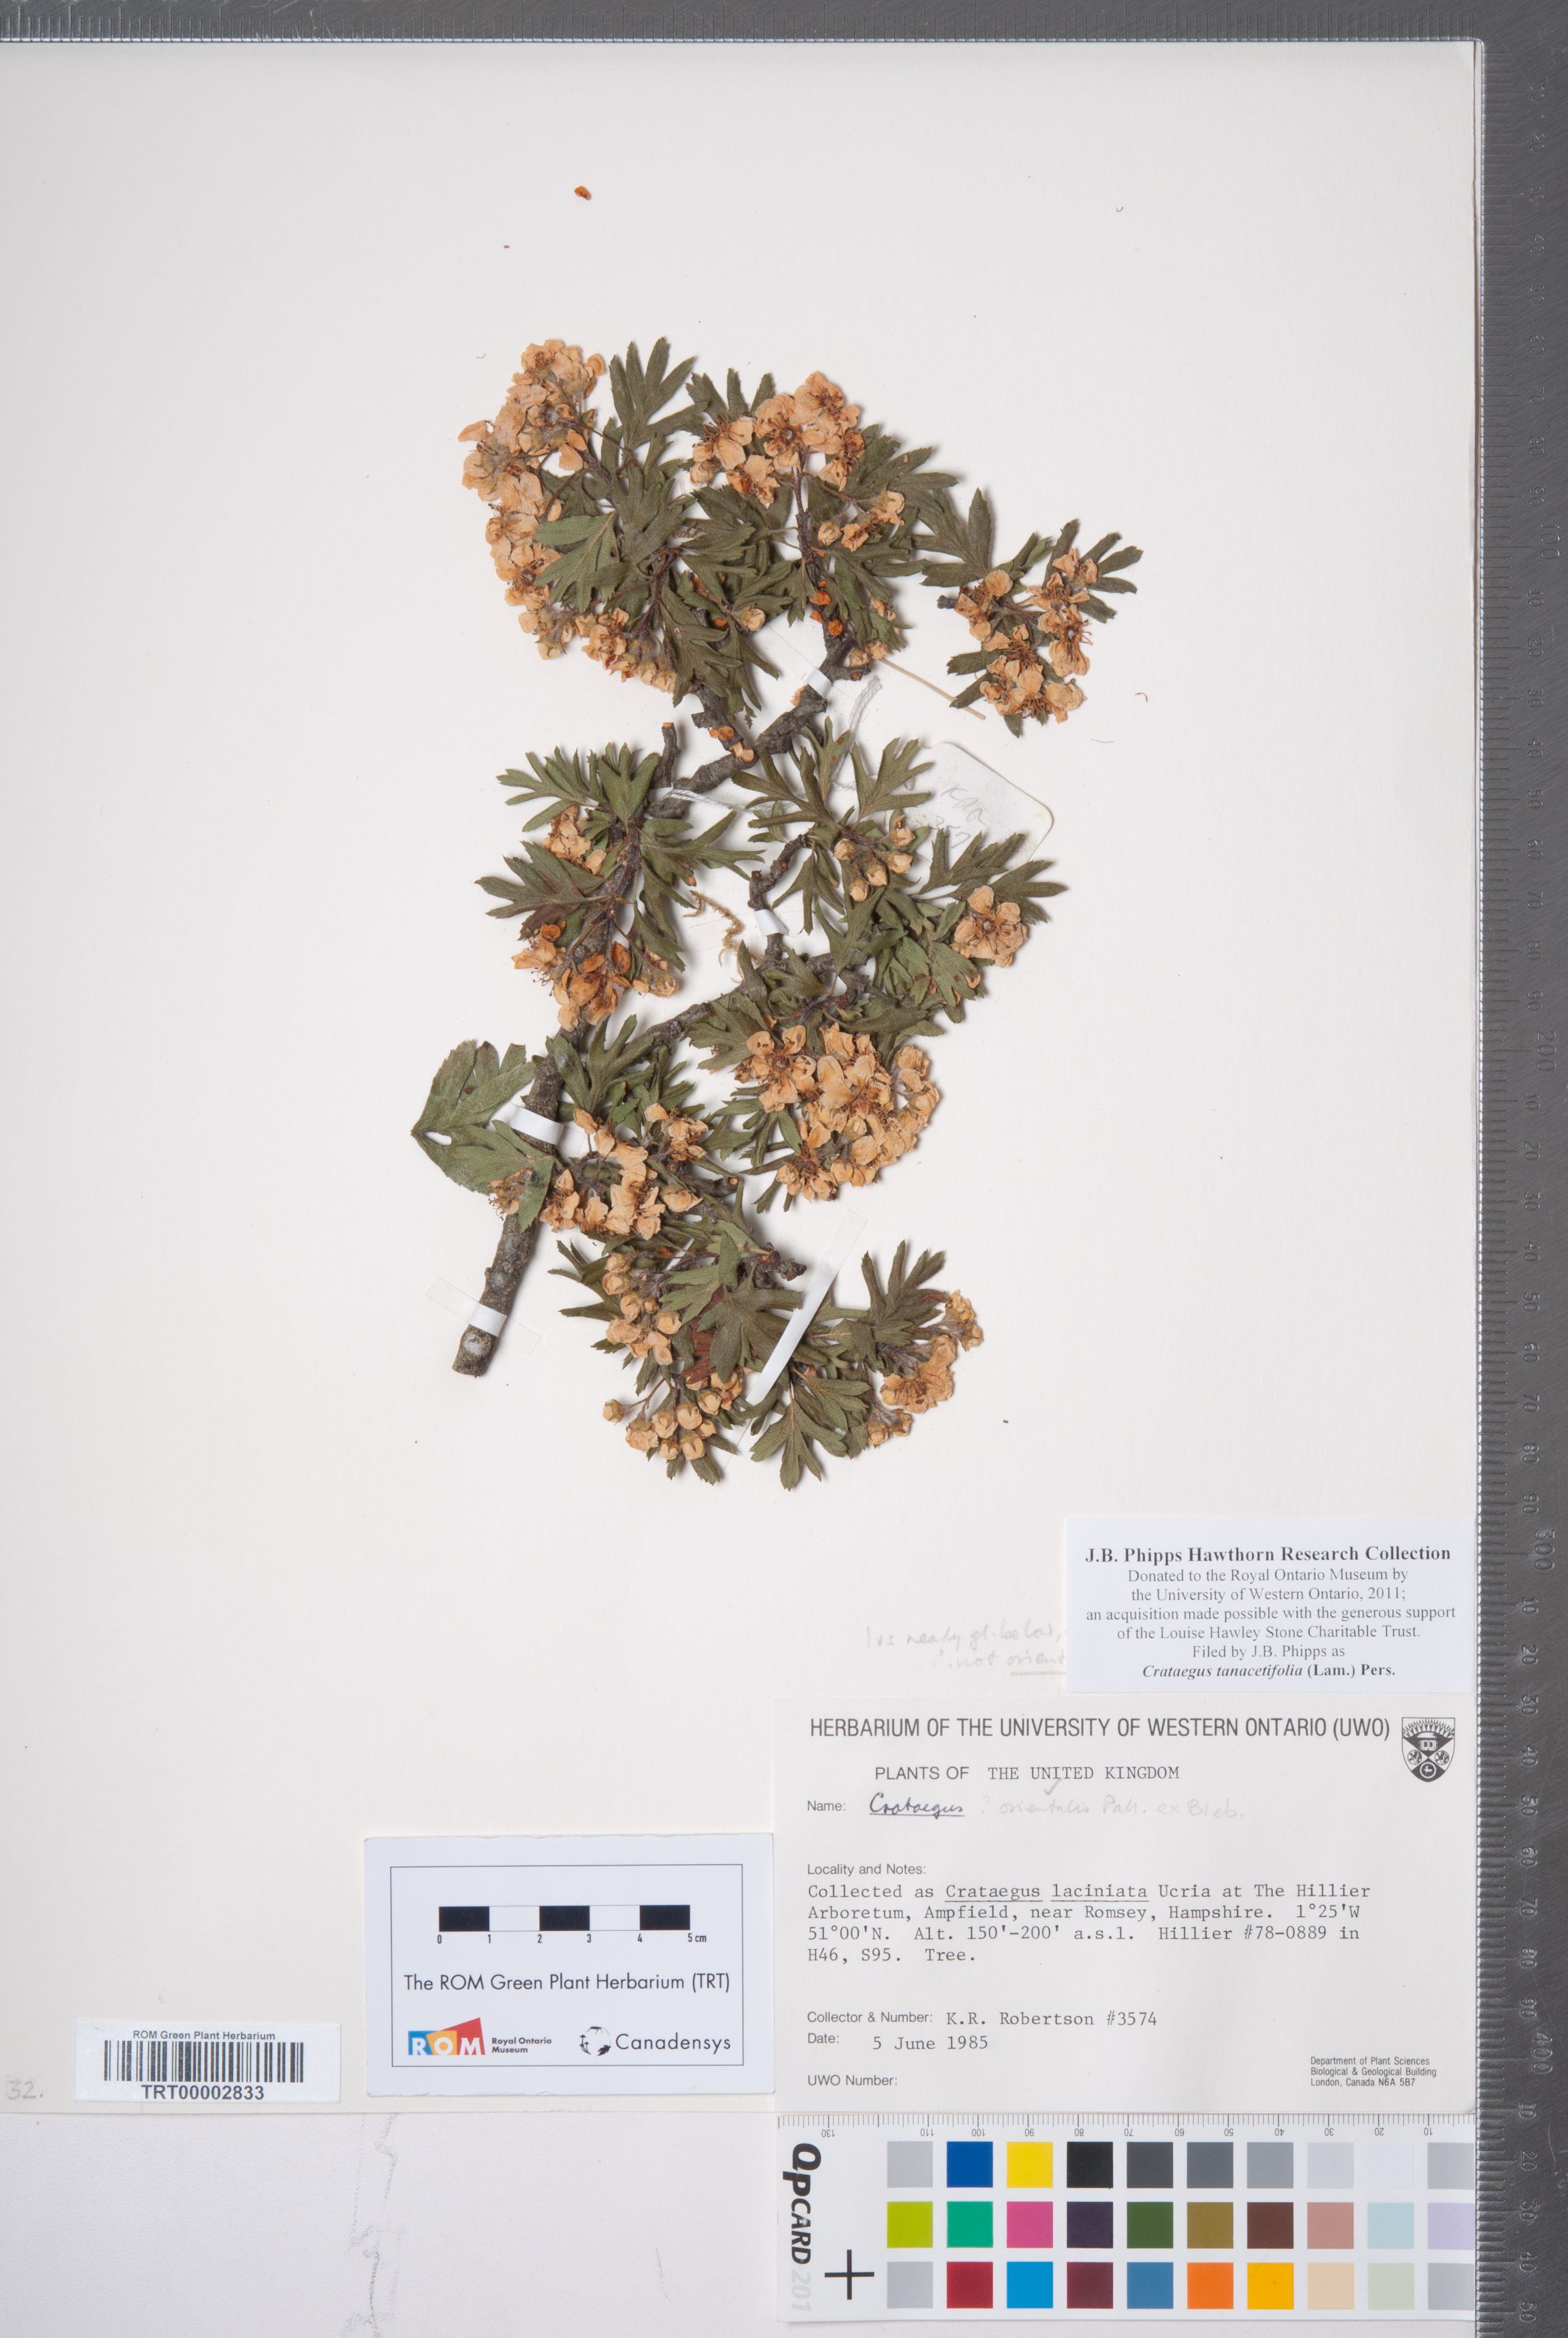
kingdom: Plantae
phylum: Tracheophyta
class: Magnoliopsida
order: Rosales
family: Rosaceae
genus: Crataegus
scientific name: Crataegus tanacetifolia
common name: Tansy-leaved thorn
